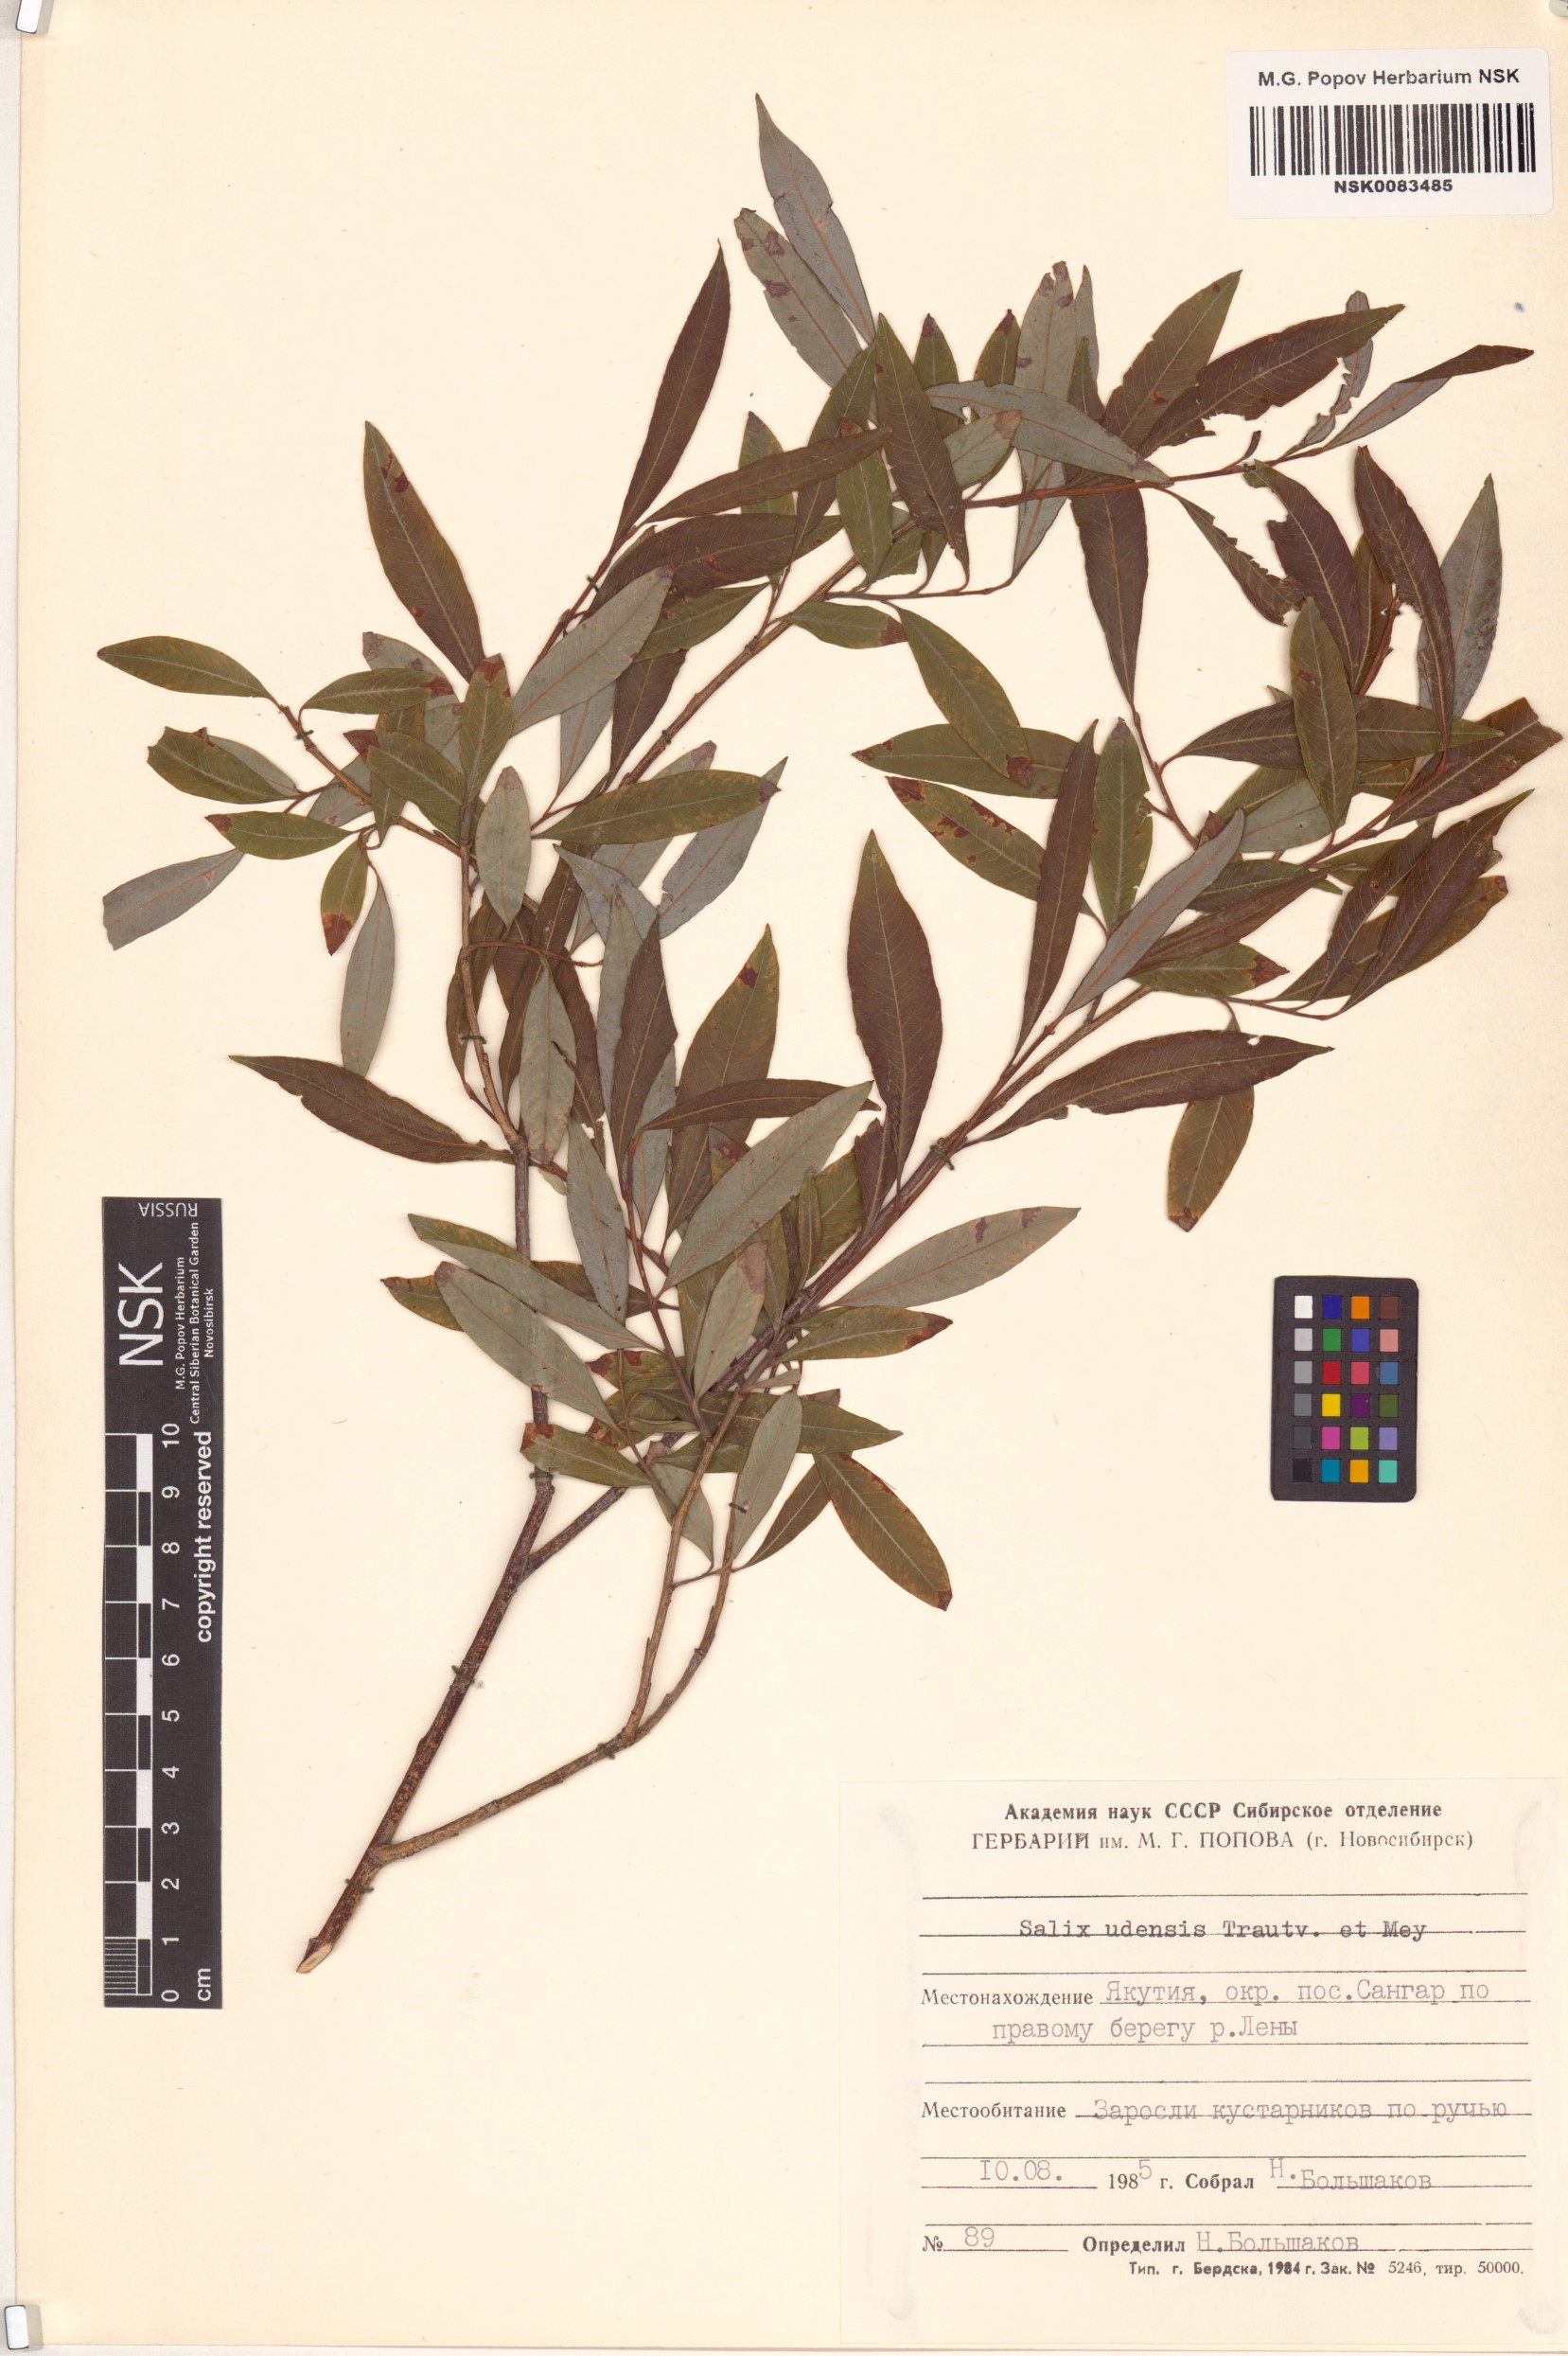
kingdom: Plantae
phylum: Tracheophyta
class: Magnoliopsida
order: Malpighiales
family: Salicaceae
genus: Salix
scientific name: Salix udensis
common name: Sachalin willow
